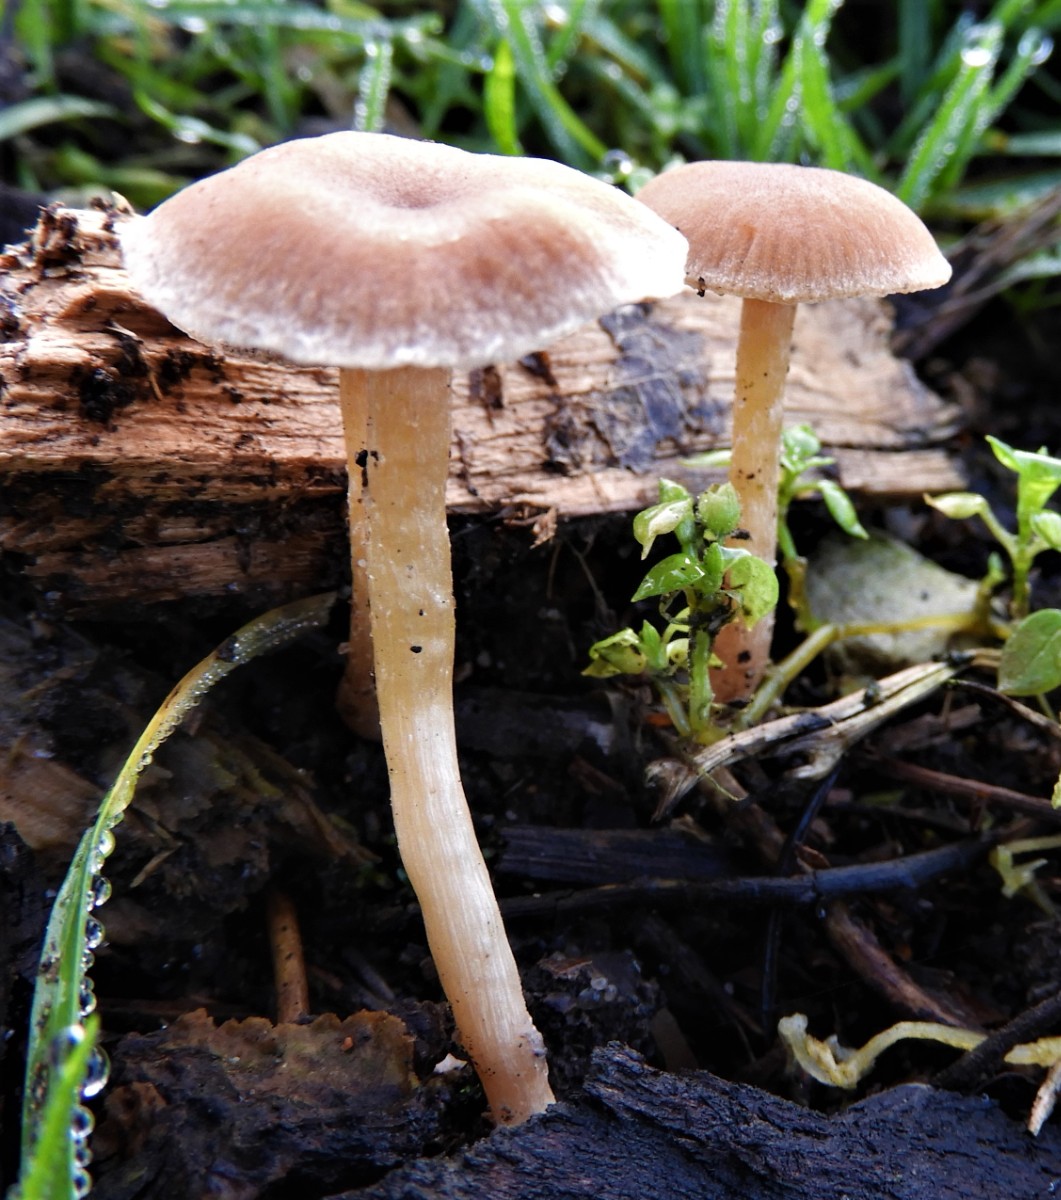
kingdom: Fungi
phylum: Basidiomycota
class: Agaricomycetes
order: Agaricales
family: Tubariaceae
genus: Tubaria
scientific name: Tubaria furfuracea
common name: kliddet fnughat
